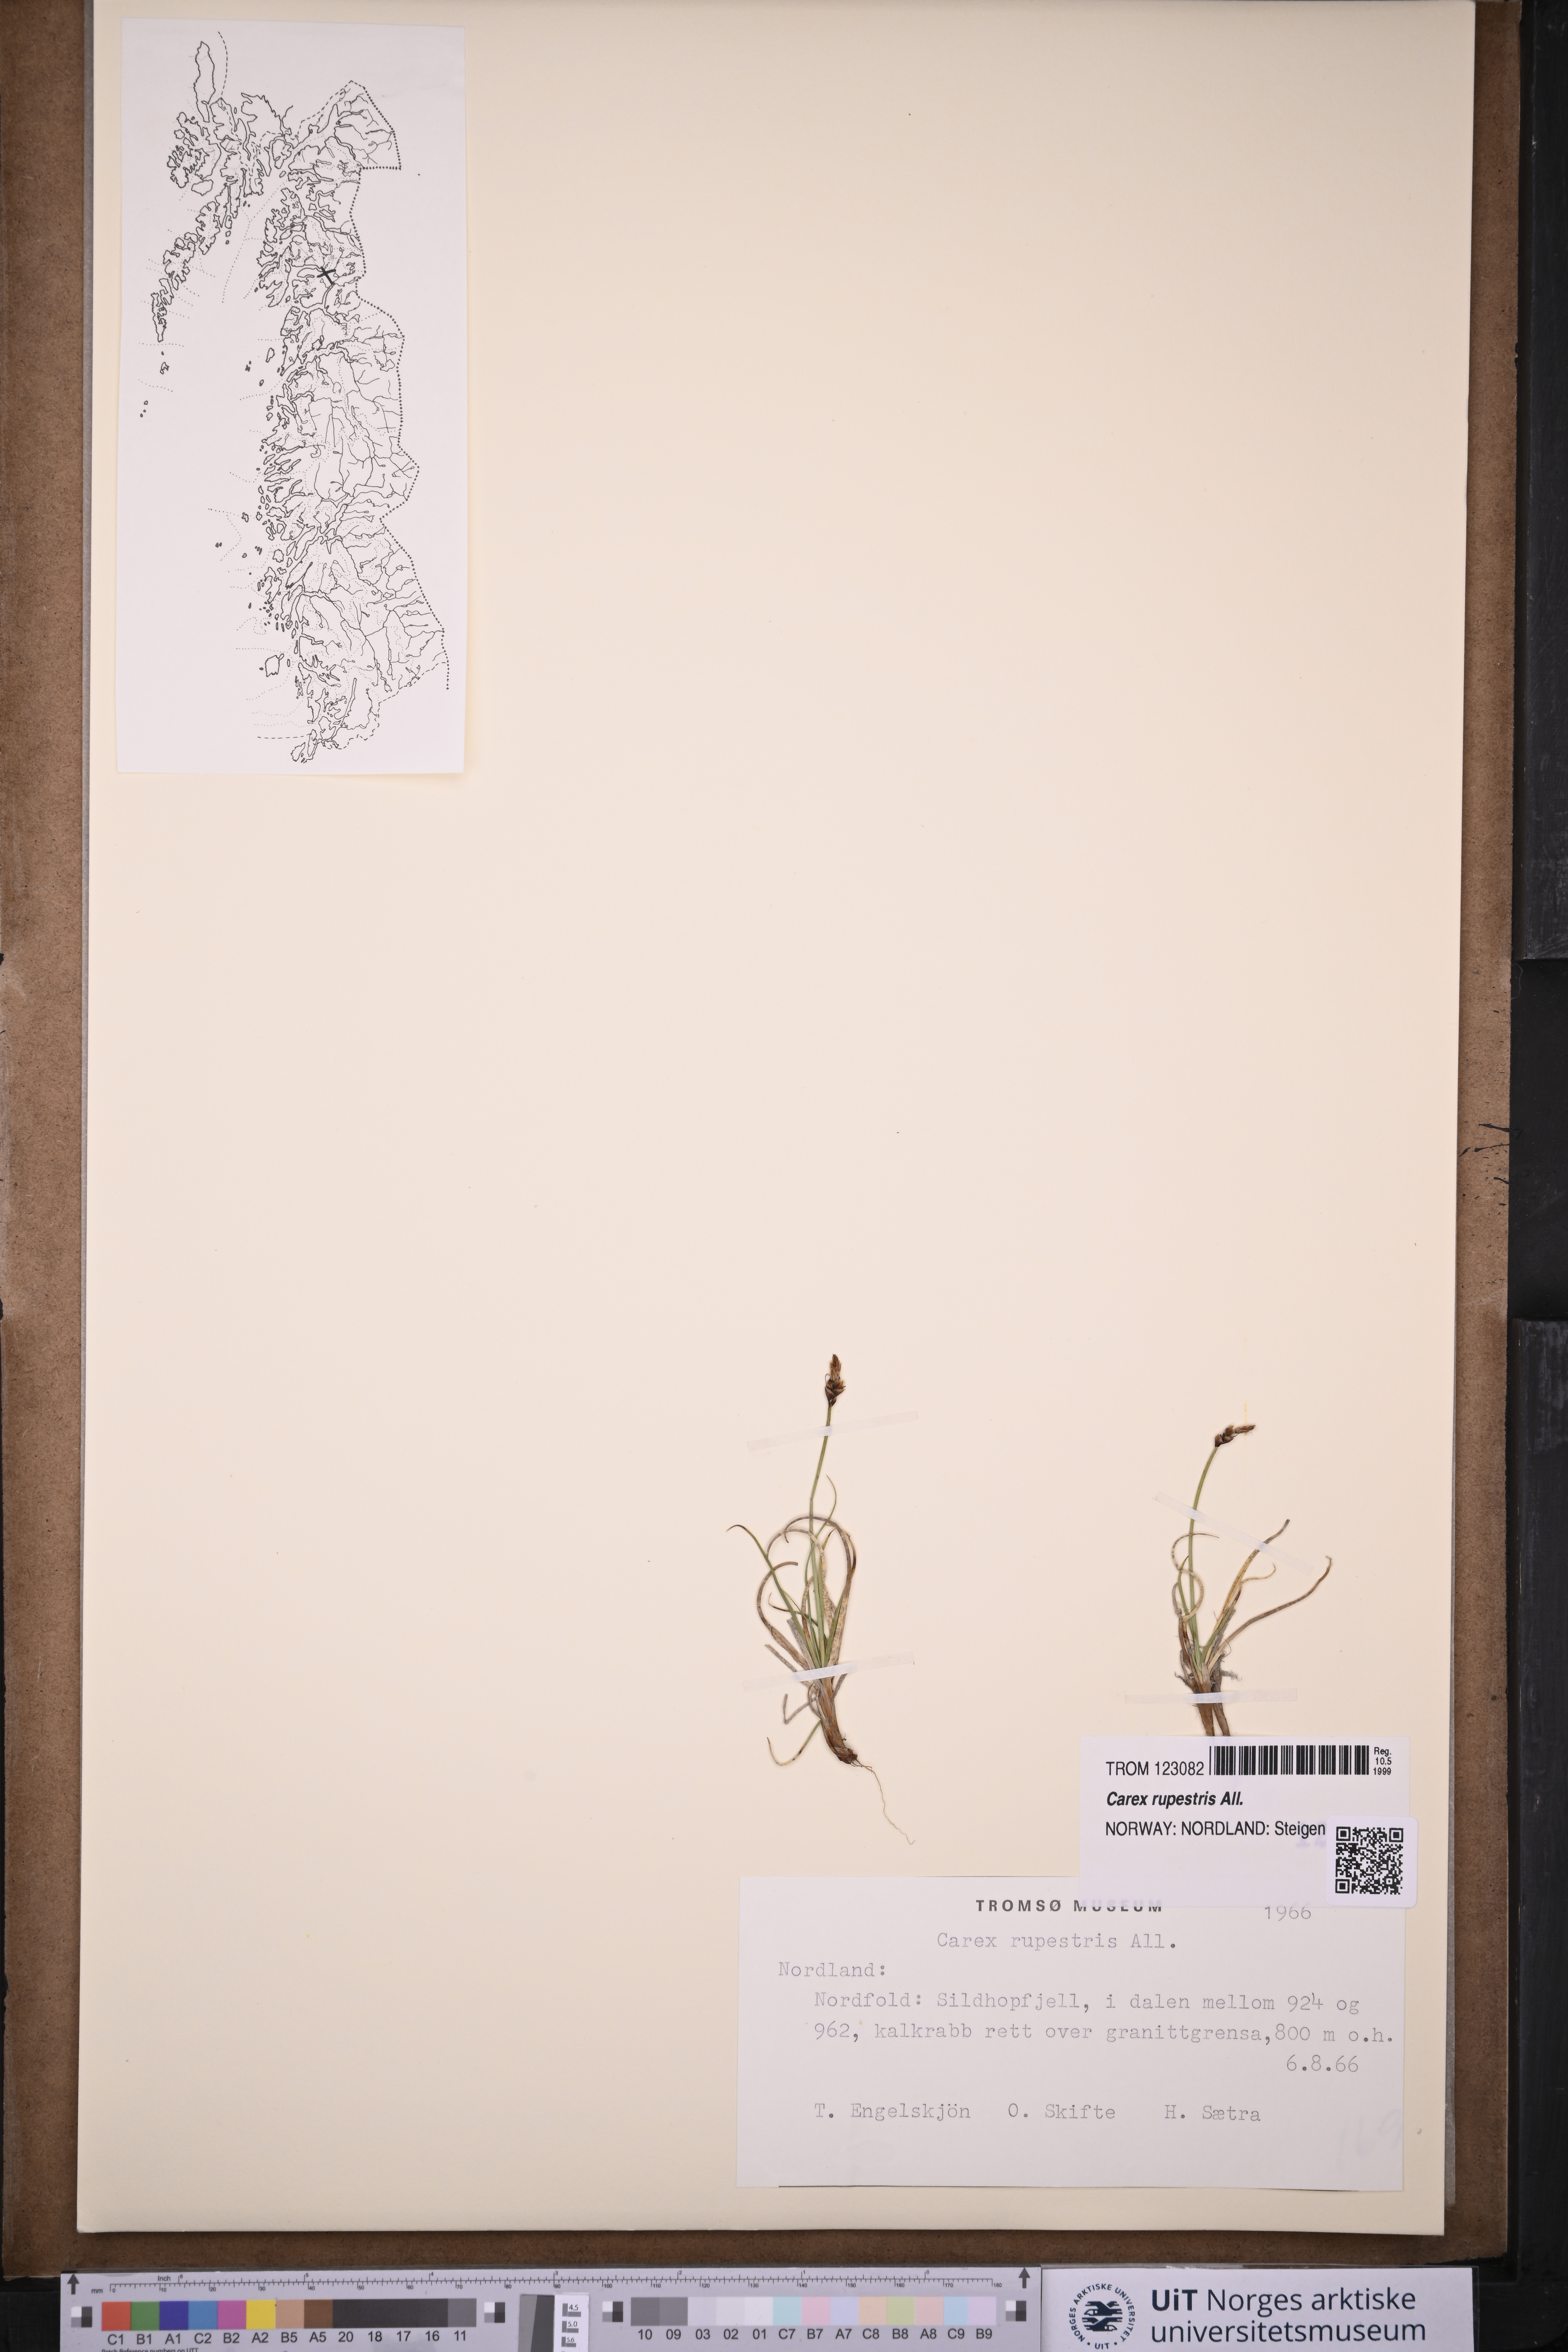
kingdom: Plantae
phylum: Tracheophyta
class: Liliopsida
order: Poales
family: Cyperaceae
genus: Carex
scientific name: Carex rupestris
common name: Rock sedge
